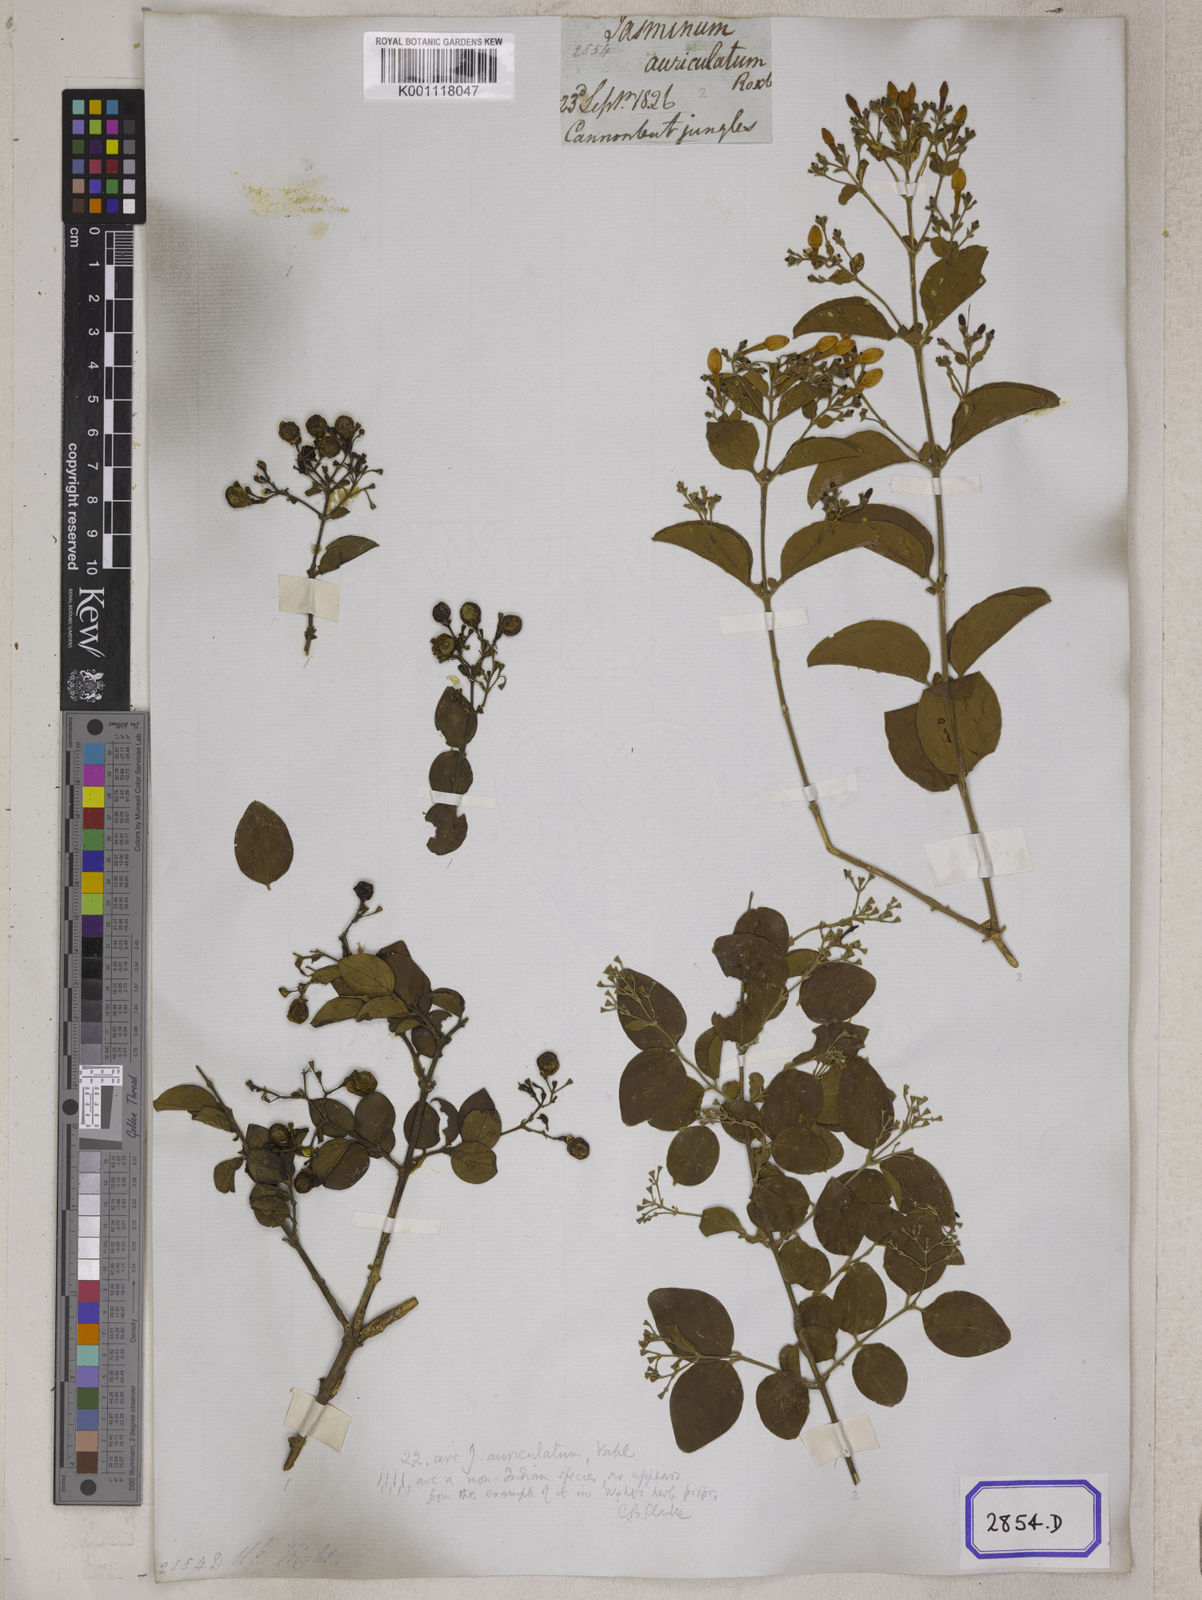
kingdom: Plantae
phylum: Tracheophyta
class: Magnoliopsida
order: Lamiales
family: Oleaceae
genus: Jasminum
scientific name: Jasminum auriculatum
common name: Needle-flower jasmine
